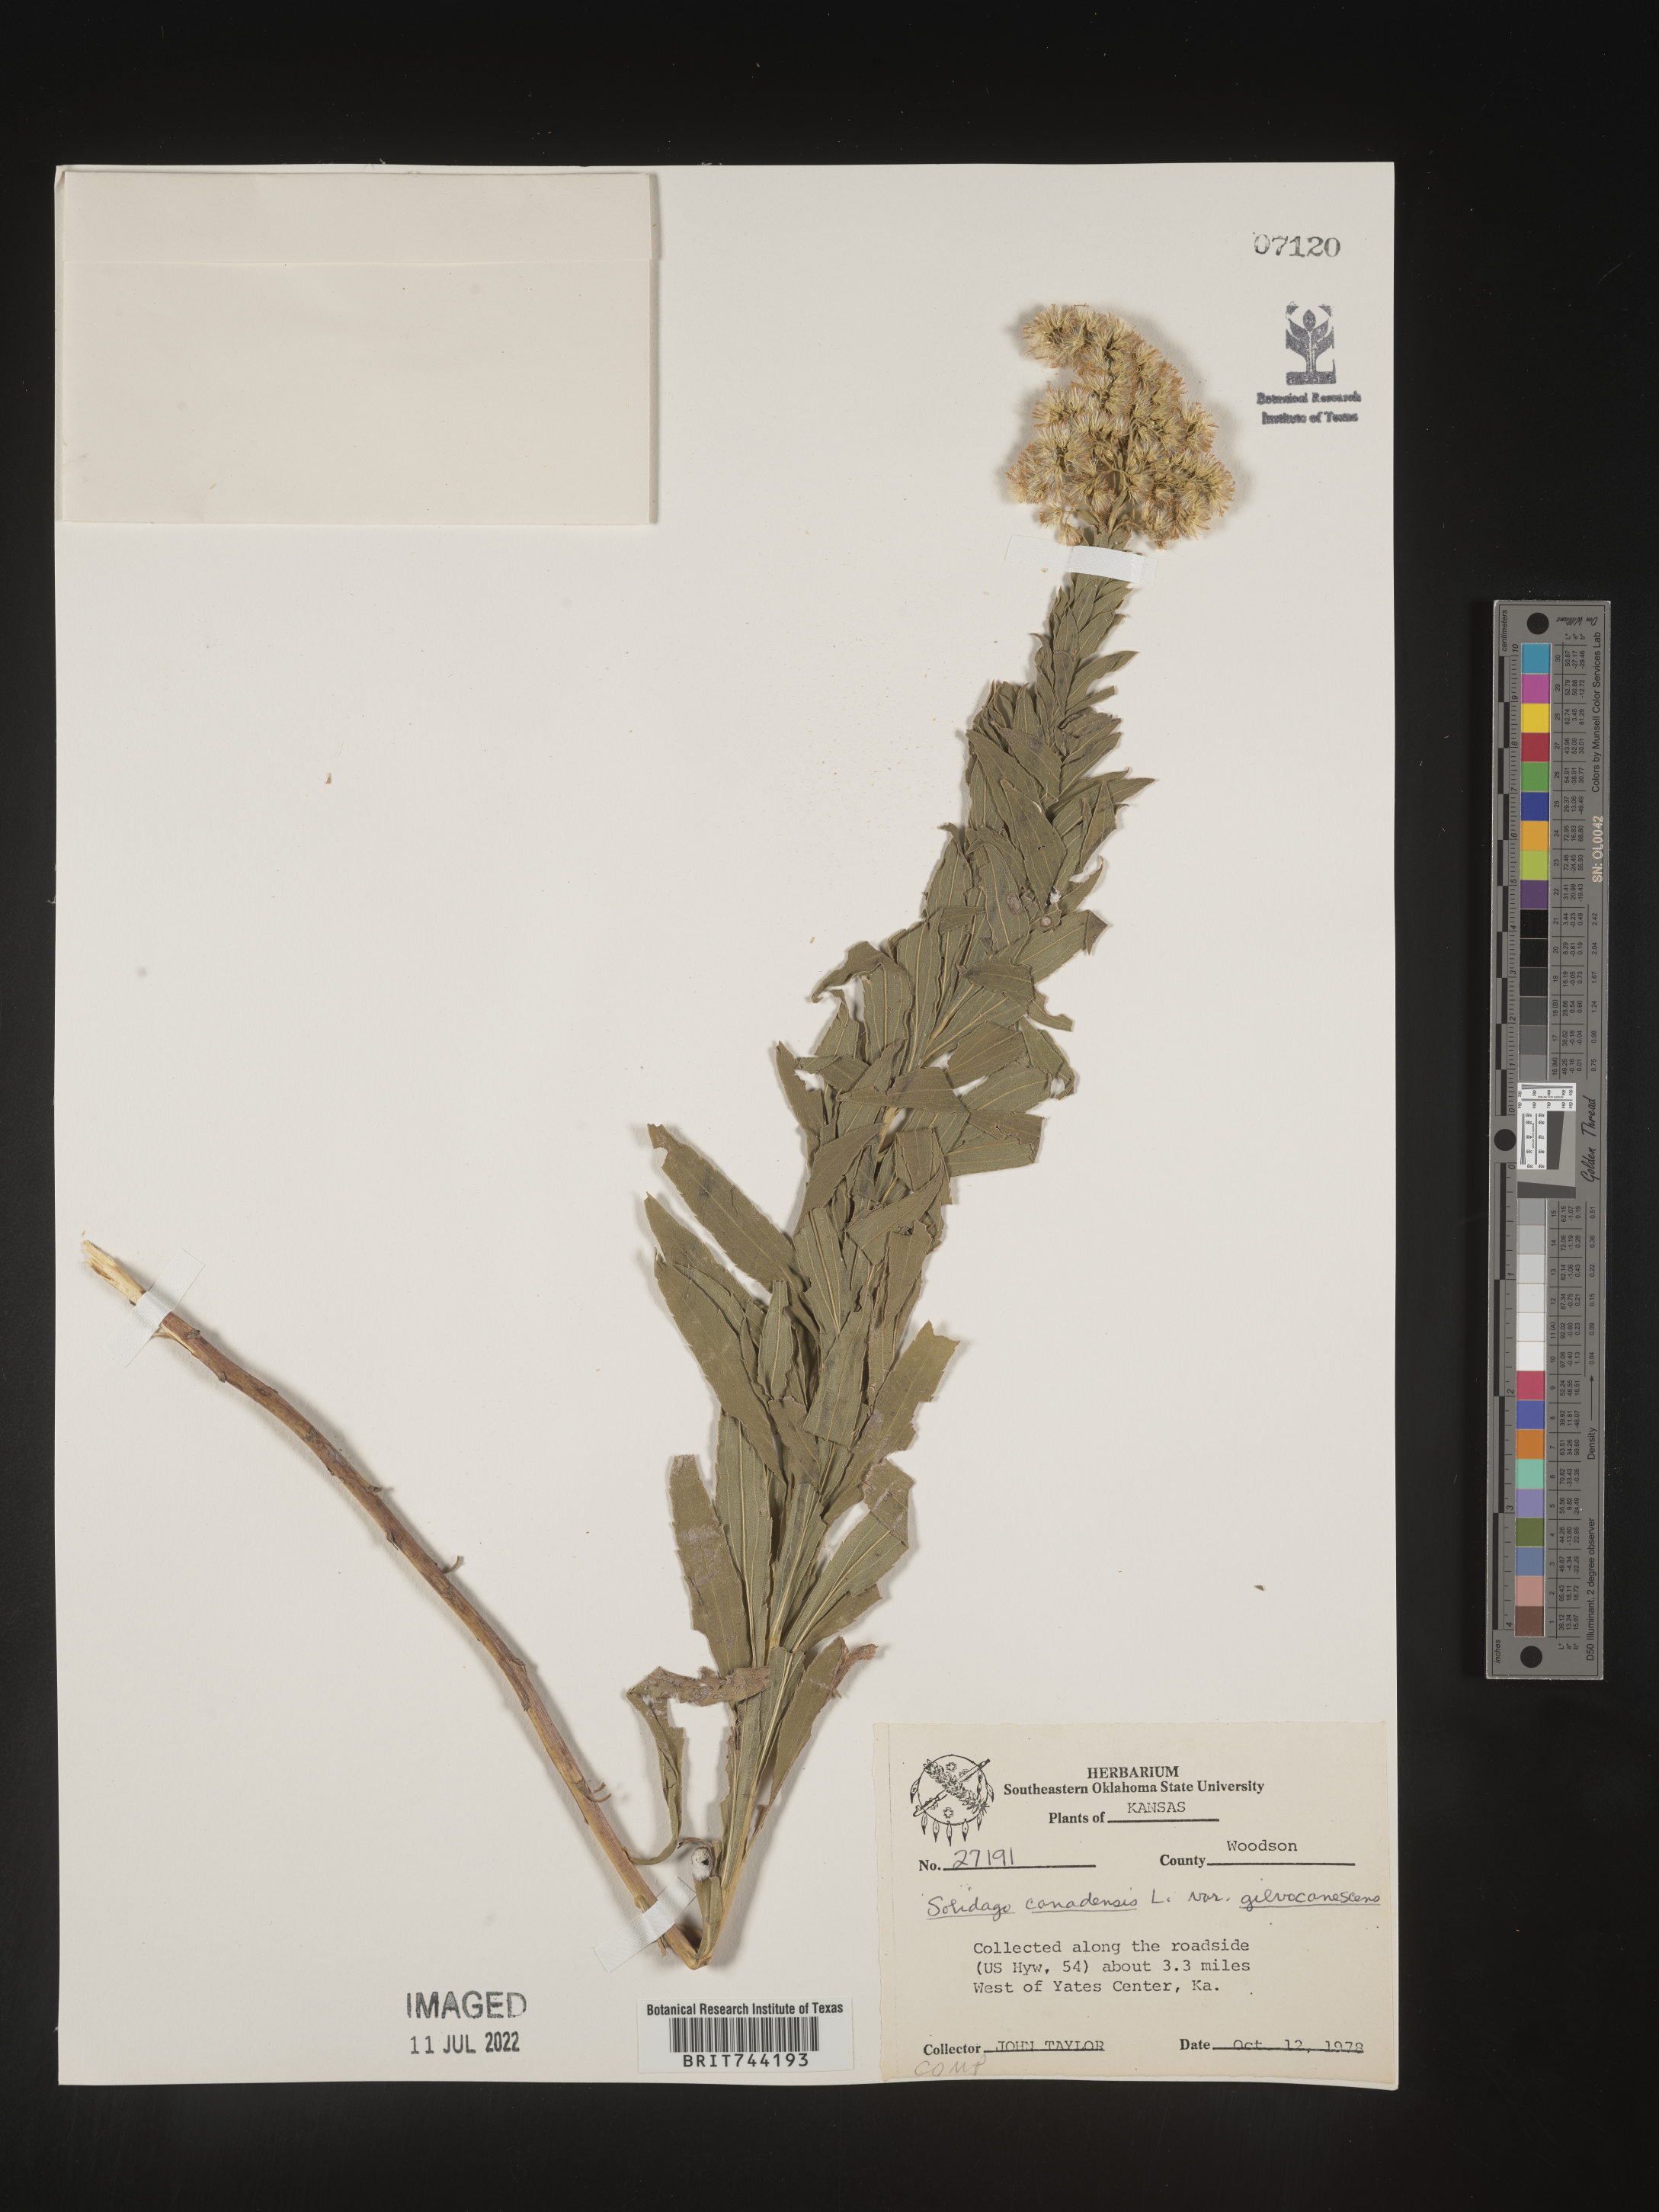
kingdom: Plantae
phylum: Tracheophyta
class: Magnoliopsida
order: Asterales
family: Asteraceae
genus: Solidago
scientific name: Solidago altissima
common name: Late goldenrod
